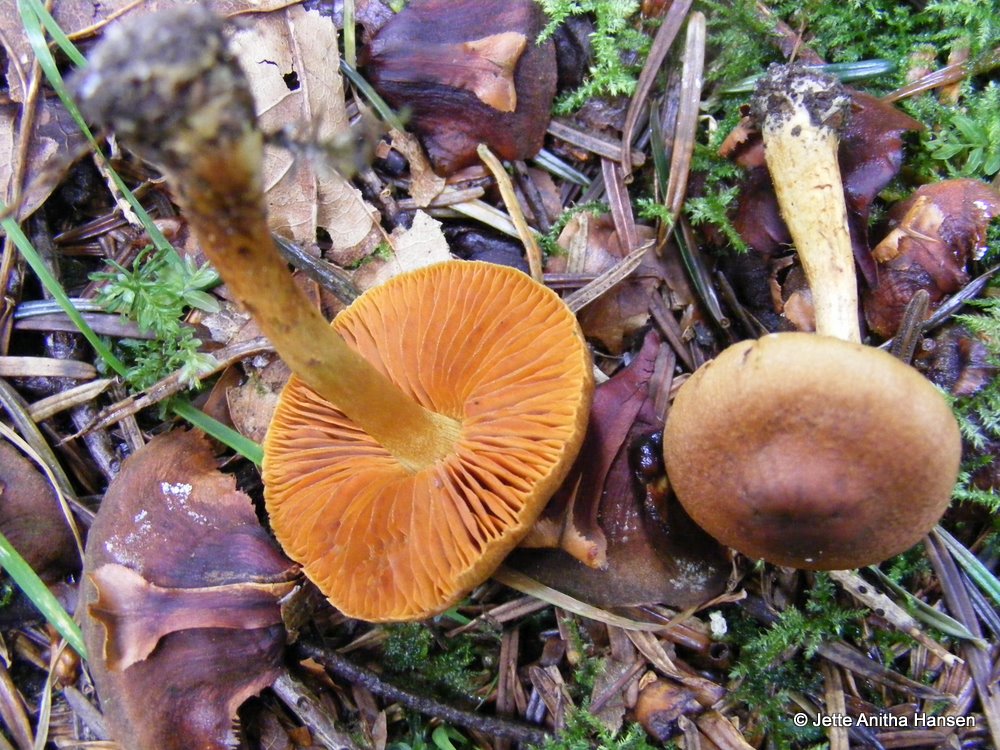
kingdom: Fungi
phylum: Basidiomycota
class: Agaricomycetes
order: Agaricales
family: Cortinariaceae
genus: Cortinarius
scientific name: Cortinarius cinnamomeus
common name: kanel-slørhat
